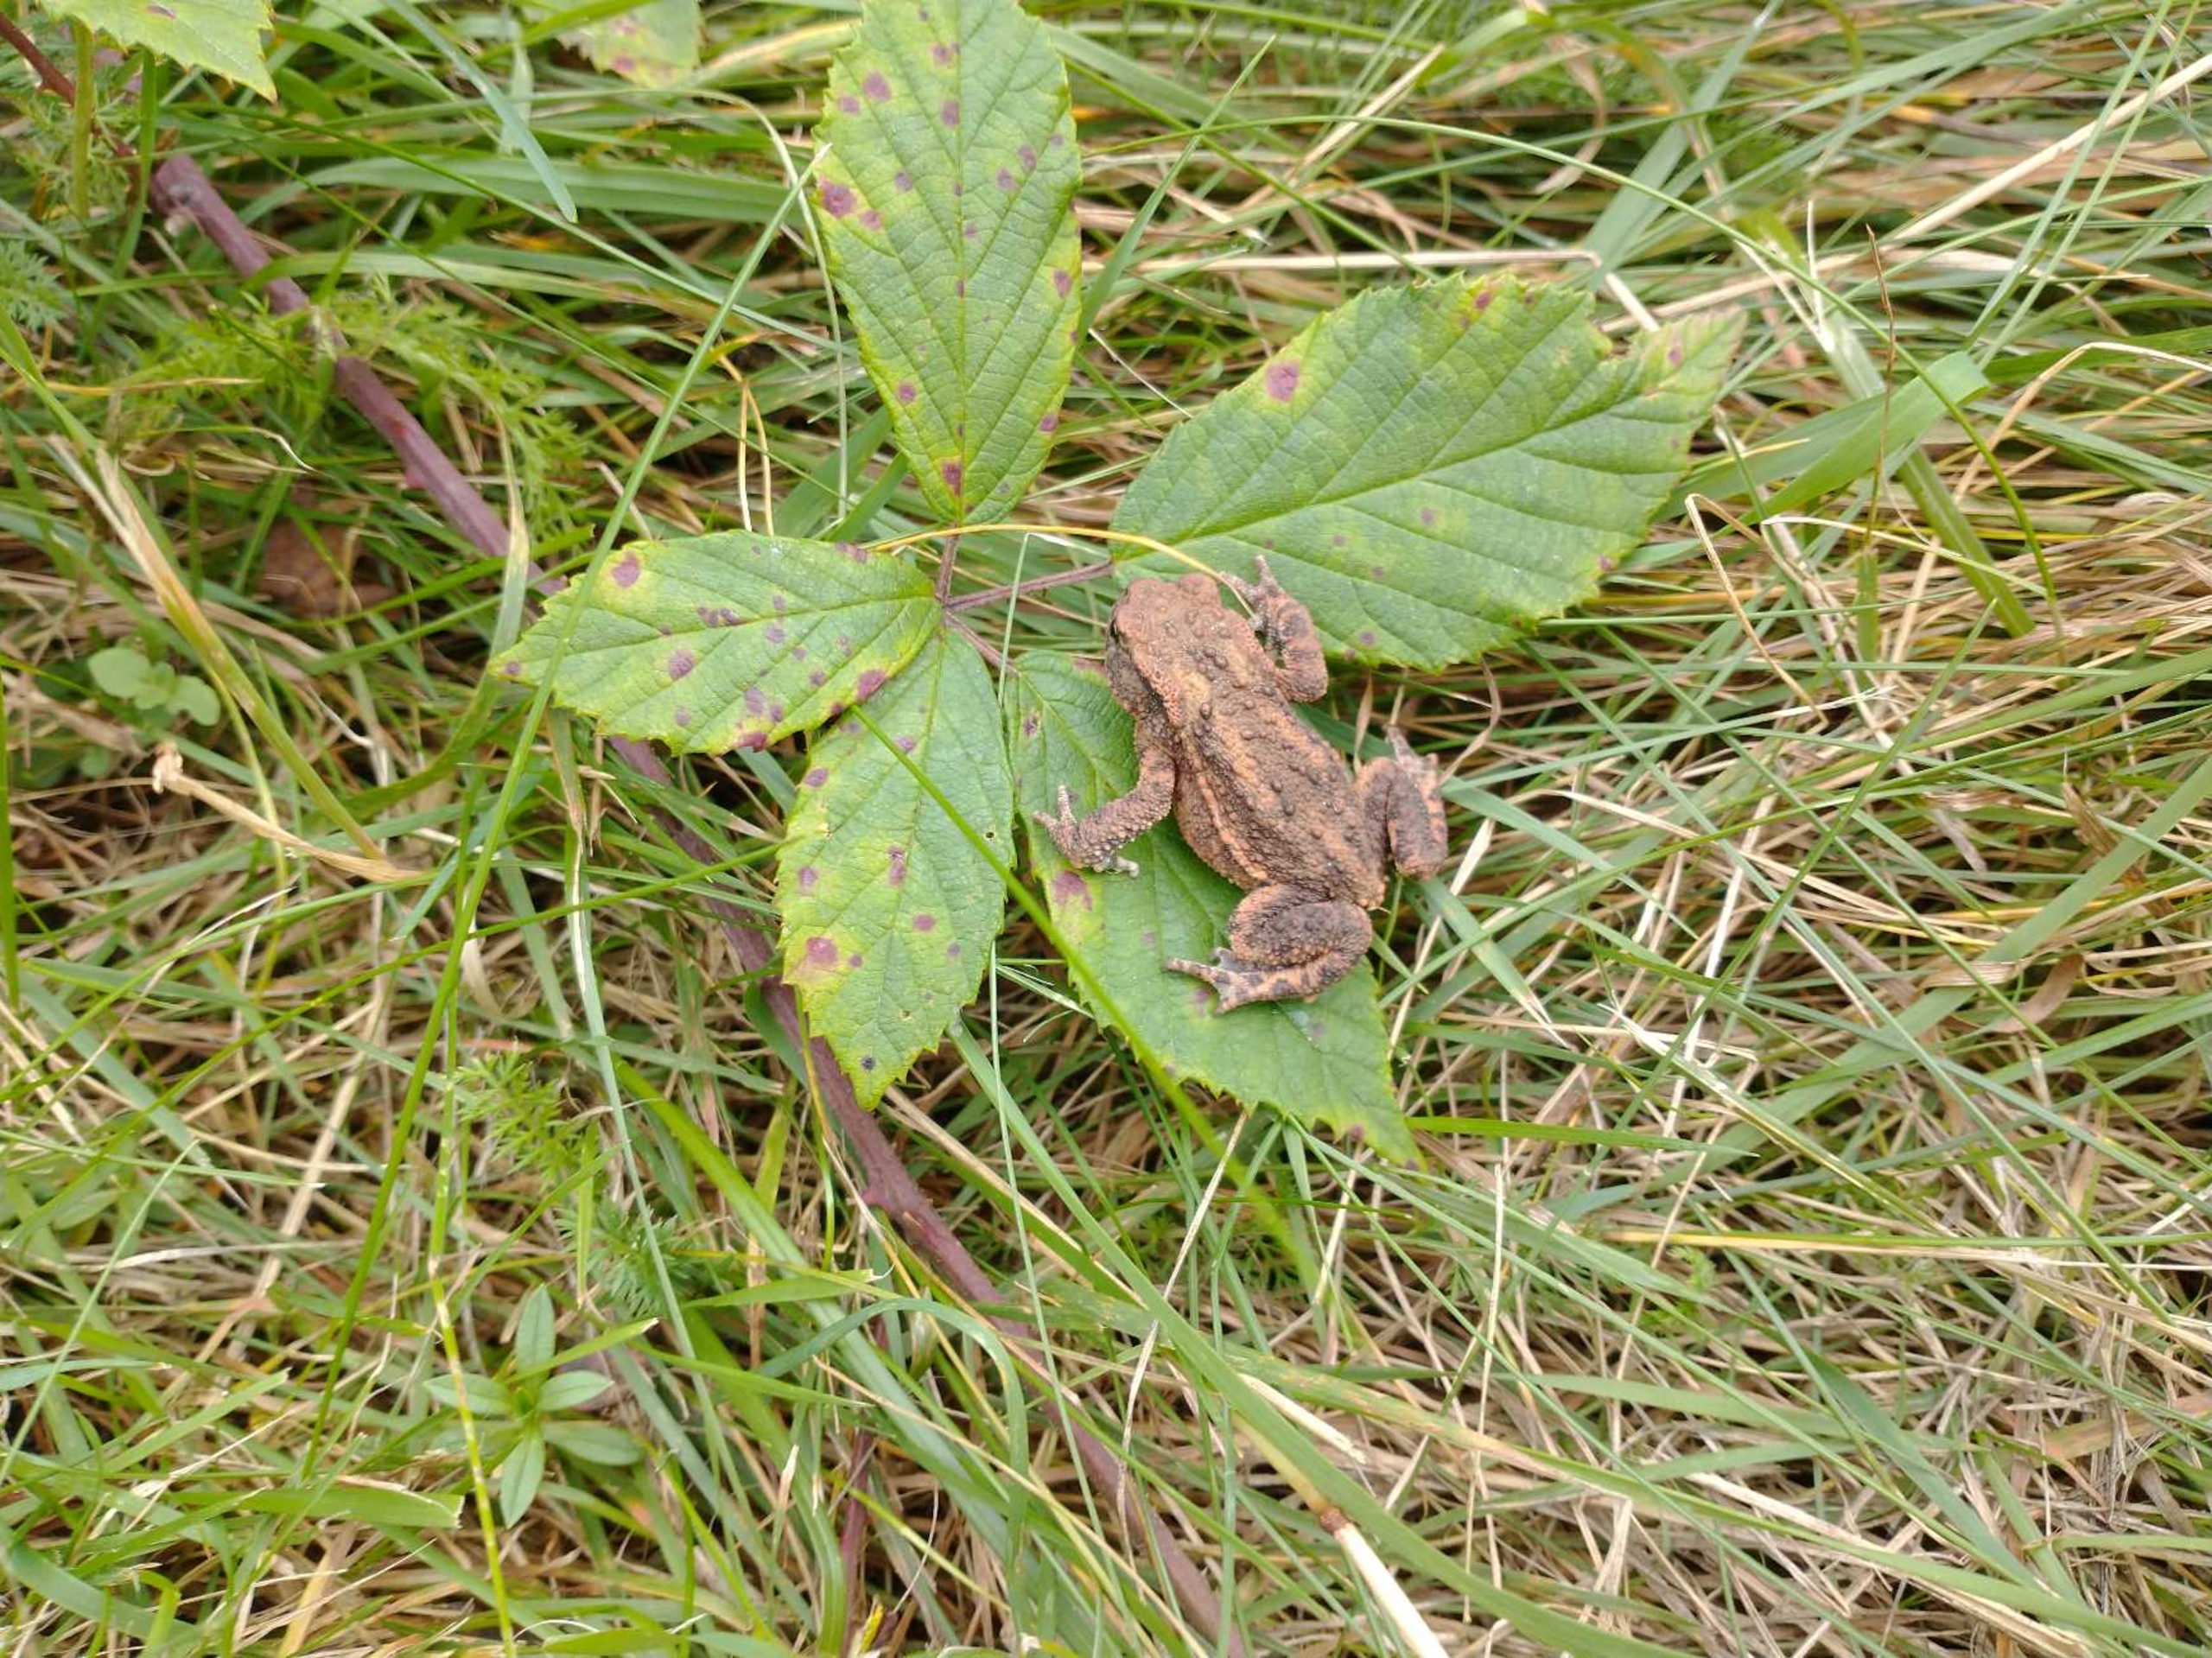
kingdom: Animalia
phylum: Chordata
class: Amphibia
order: Anura
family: Bufonidae
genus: Bufo
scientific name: Bufo bufo
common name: Skrubtudse
